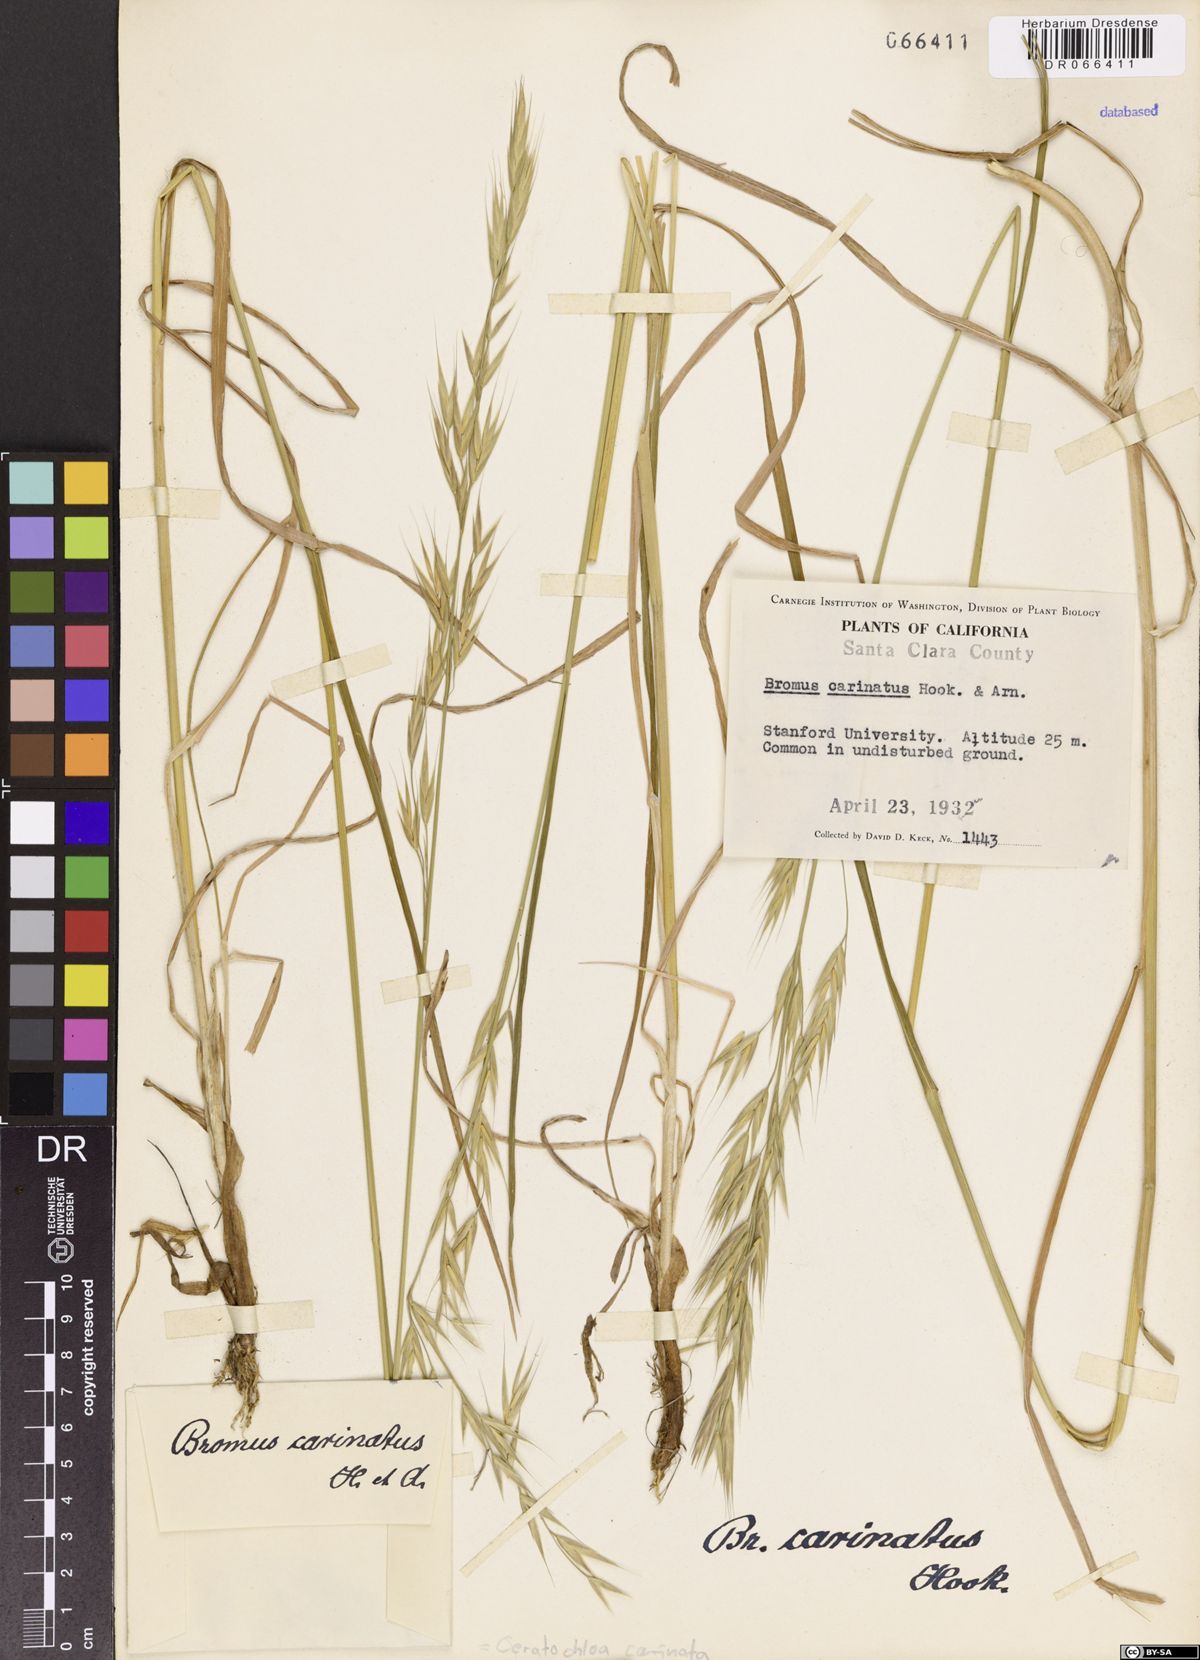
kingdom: Plantae
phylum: Tracheophyta
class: Liliopsida
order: Poales
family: Poaceae
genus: Bromus
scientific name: Bromus carinatus
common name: Mountain brome
